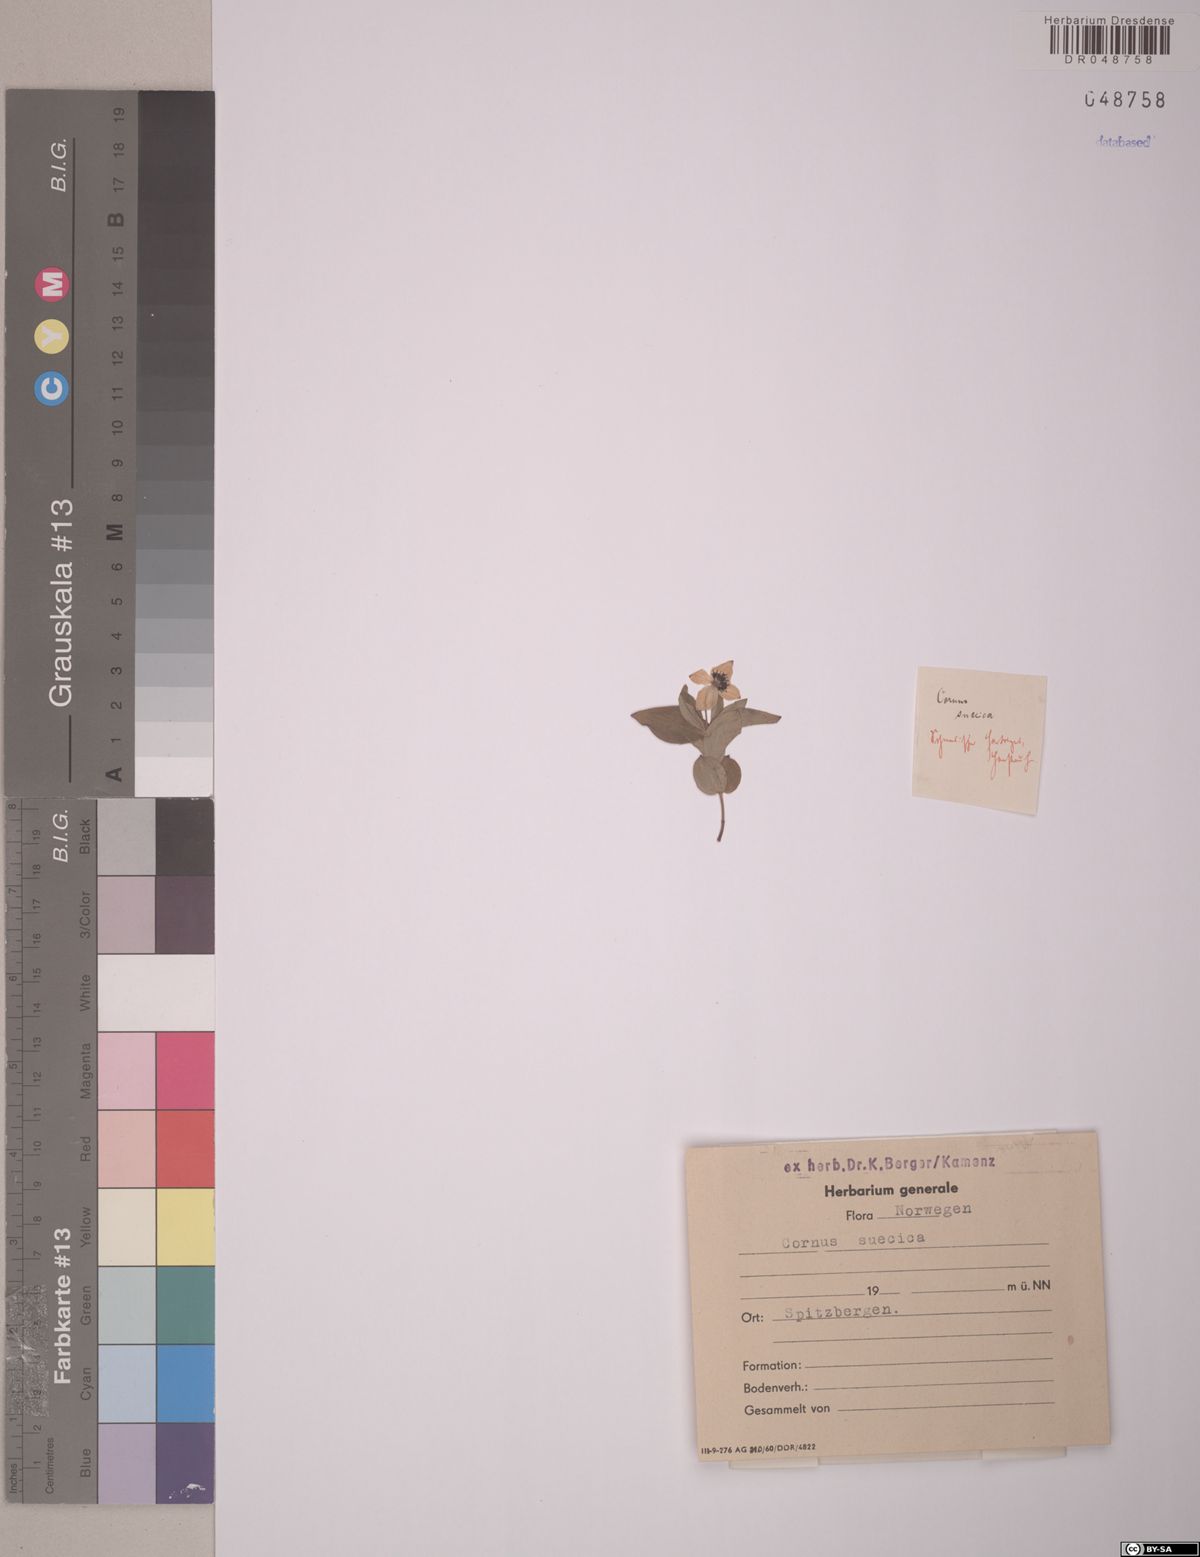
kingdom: Plantae
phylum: Tracheophyta
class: Magnoliopsida
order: Cornales
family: Cornaceae
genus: Cornus
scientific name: Cornus suecica
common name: Dwarf cornel
